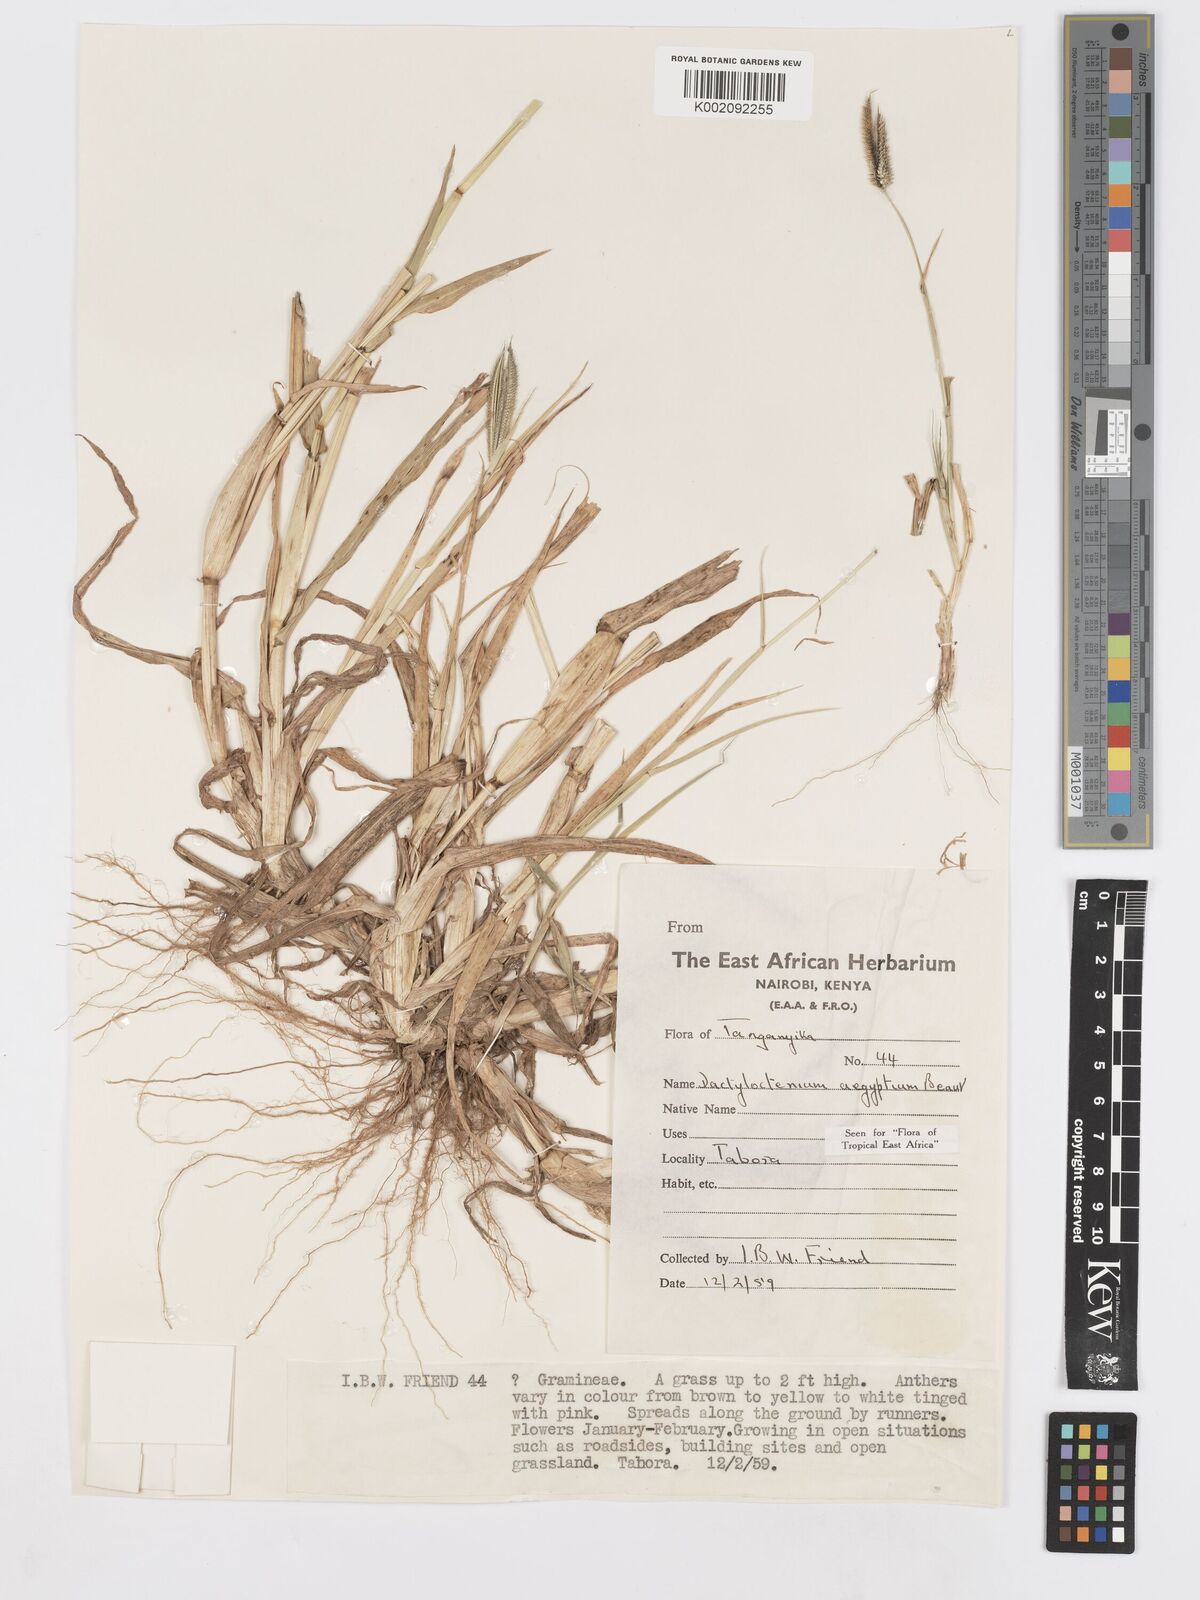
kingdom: Plantae
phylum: Tracheophyta
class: Liliopsida
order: Poales
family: Poaceae
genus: Dactyloctenium
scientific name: Dactyloctenium aegyptium
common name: Egyptian grass
